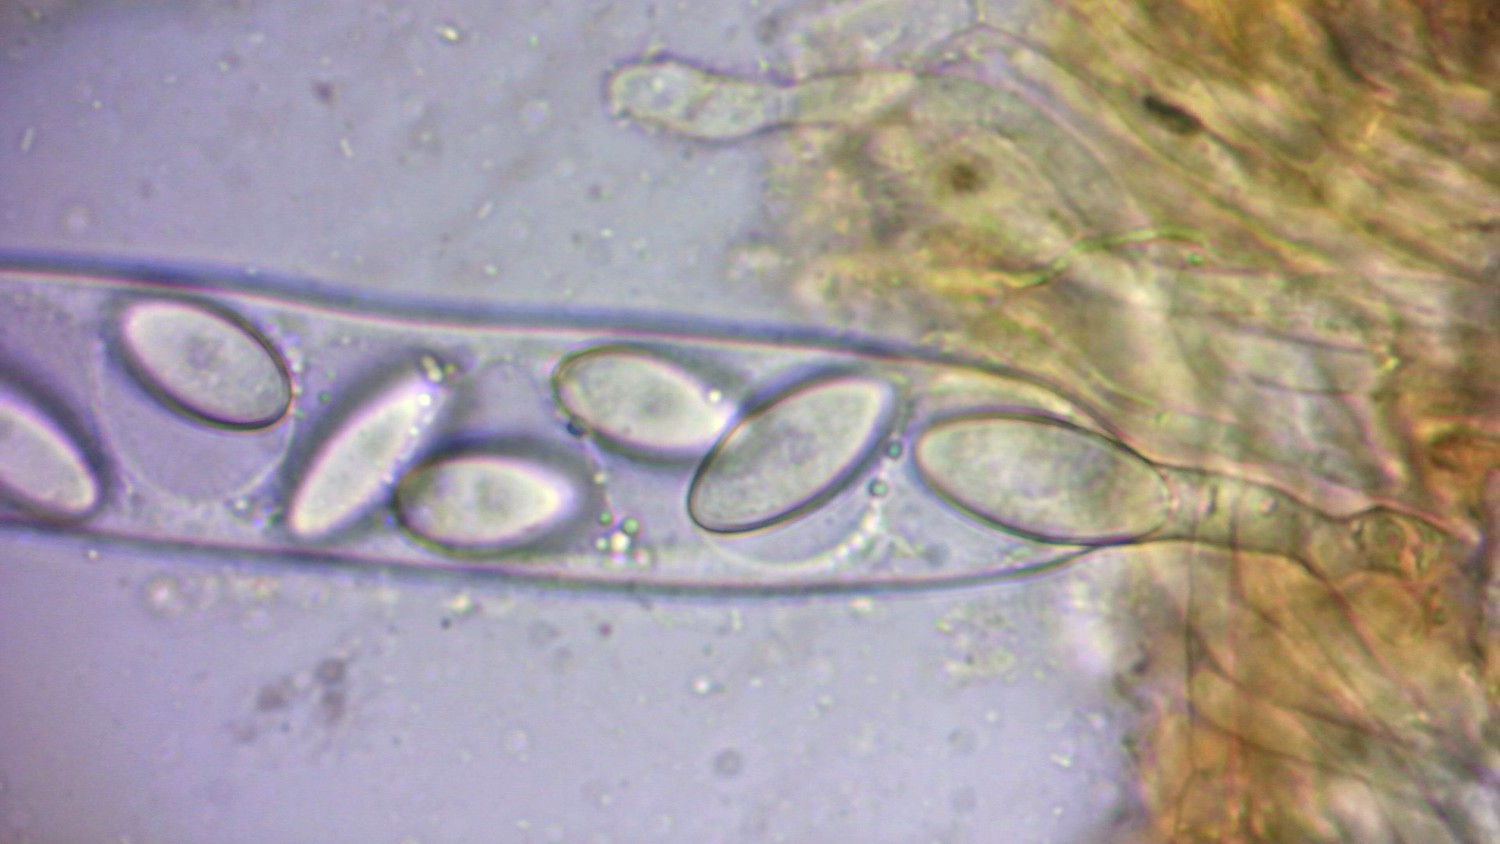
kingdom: Fungi
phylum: Ascomycota
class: Pezizomycetes
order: Pezizales
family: Ascobolaceae
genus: Ascobolus
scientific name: Ascobolus furfuraceus
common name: almindelig prikbæger
